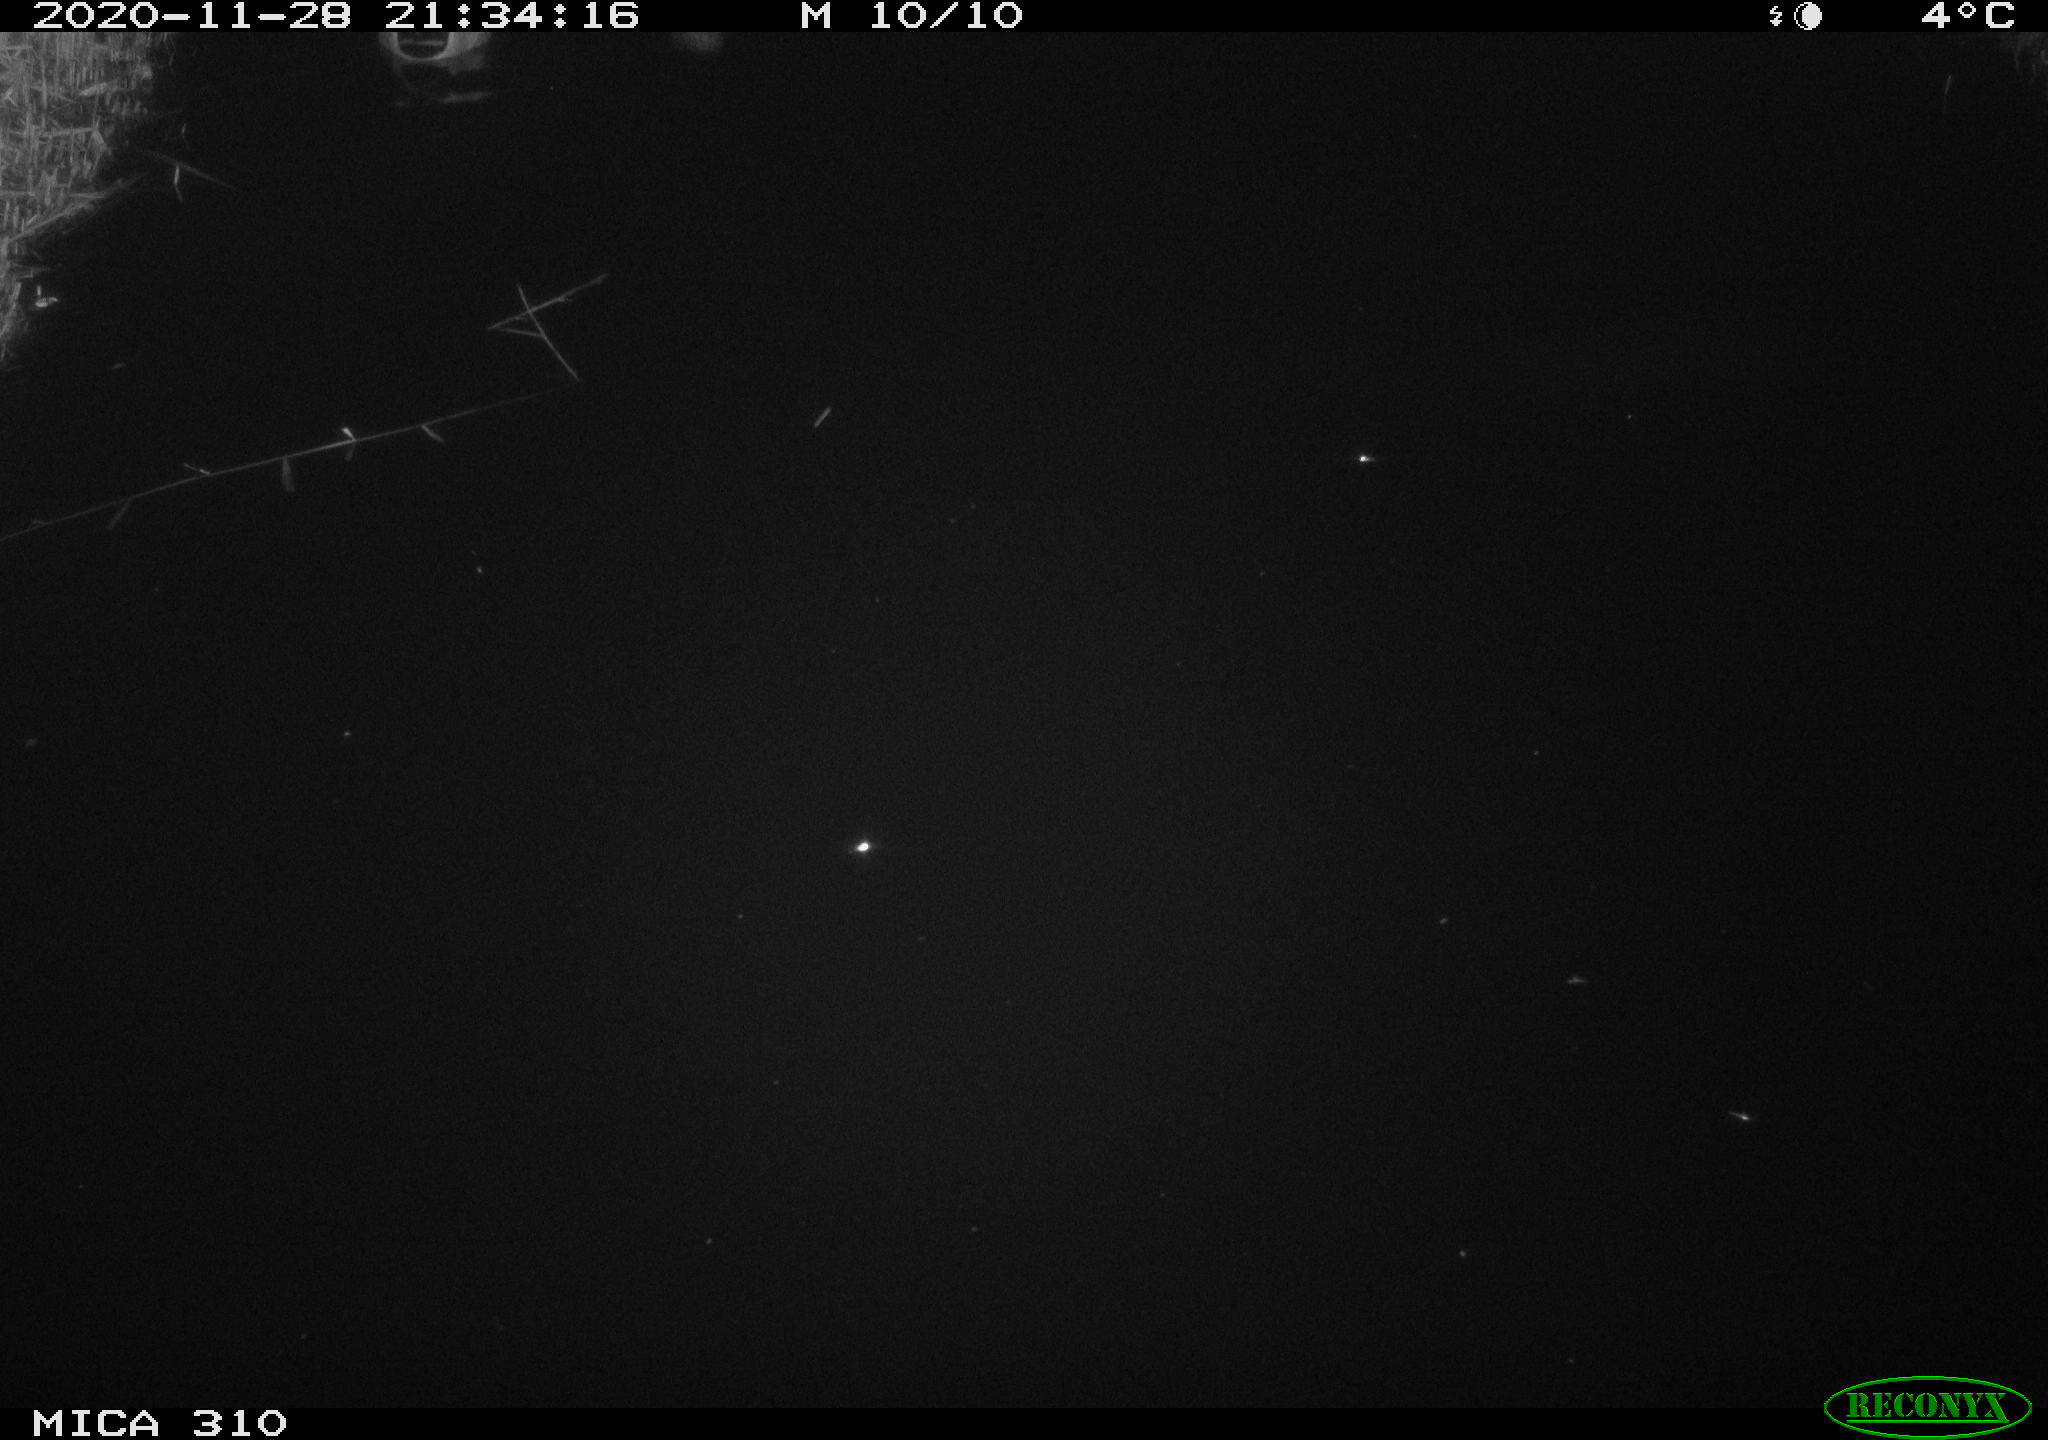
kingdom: Animalia
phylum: Chordata
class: Aves
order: Anseriformes
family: Anatidae
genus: Anas
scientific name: Anas platyrhynchos
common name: Mallard
